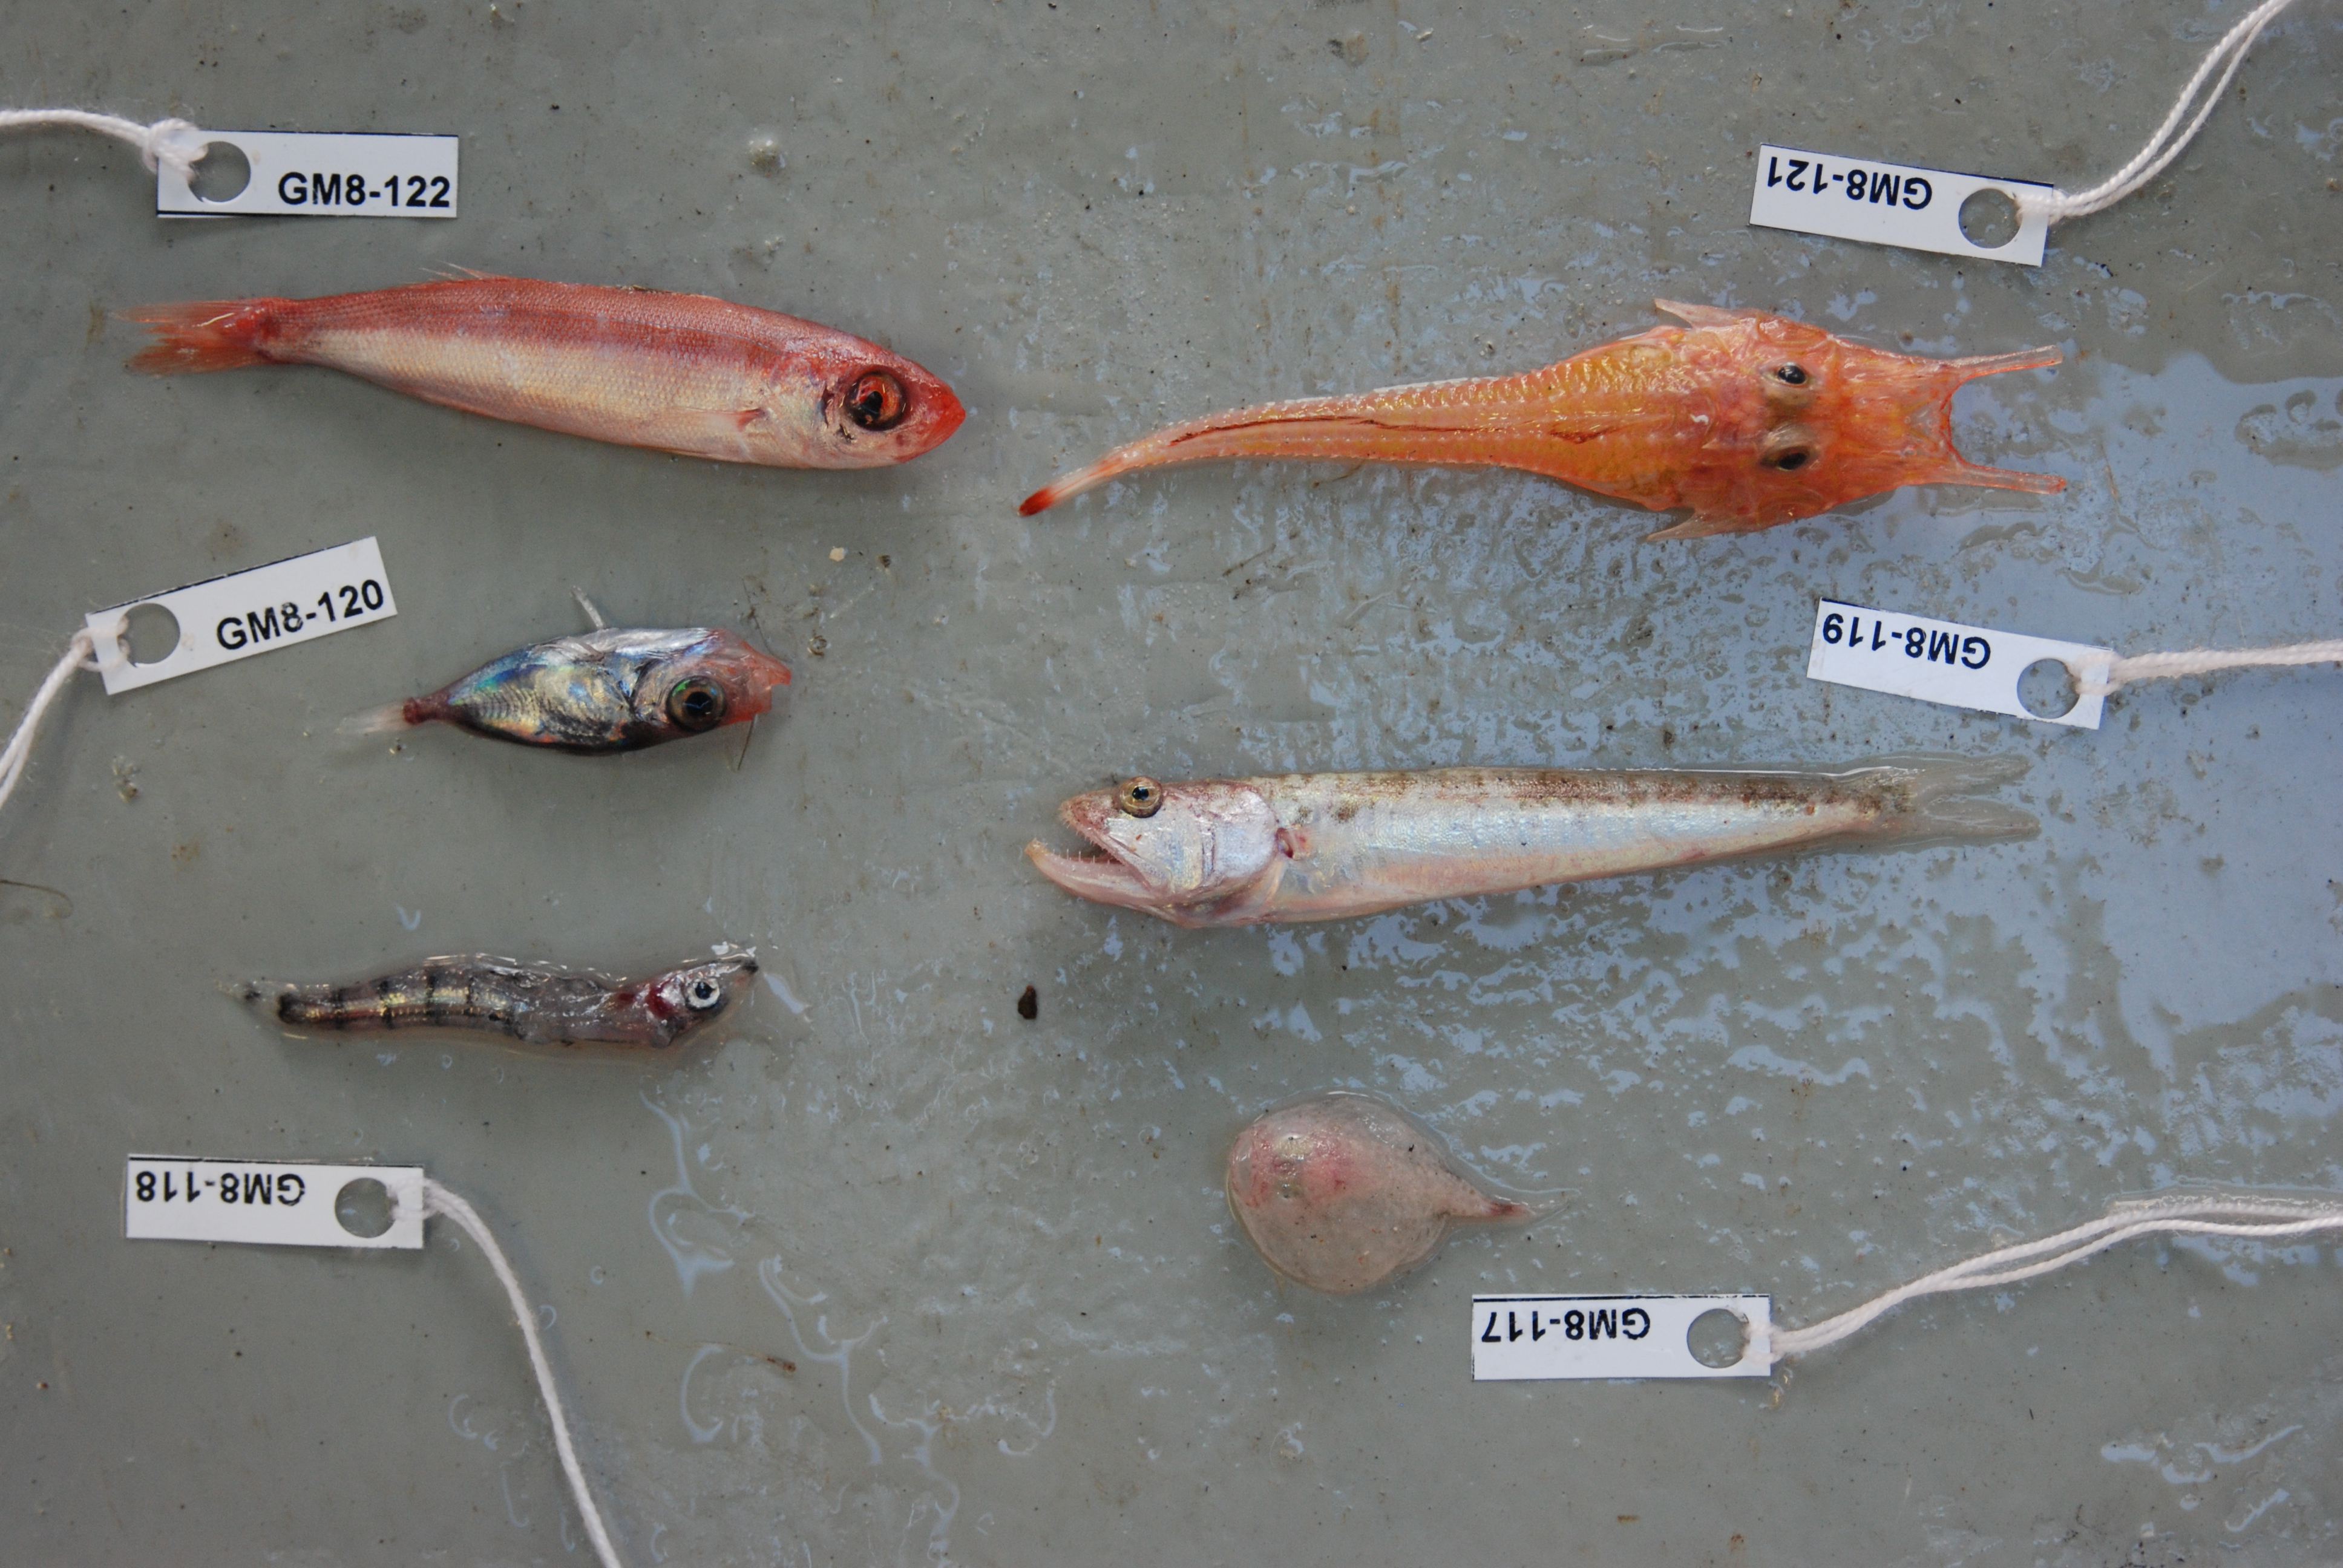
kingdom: Animalia
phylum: Chordata
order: Perciformes
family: Champsodontidae
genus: Champsodon
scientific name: Champsodon nudivittis
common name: Gaper
